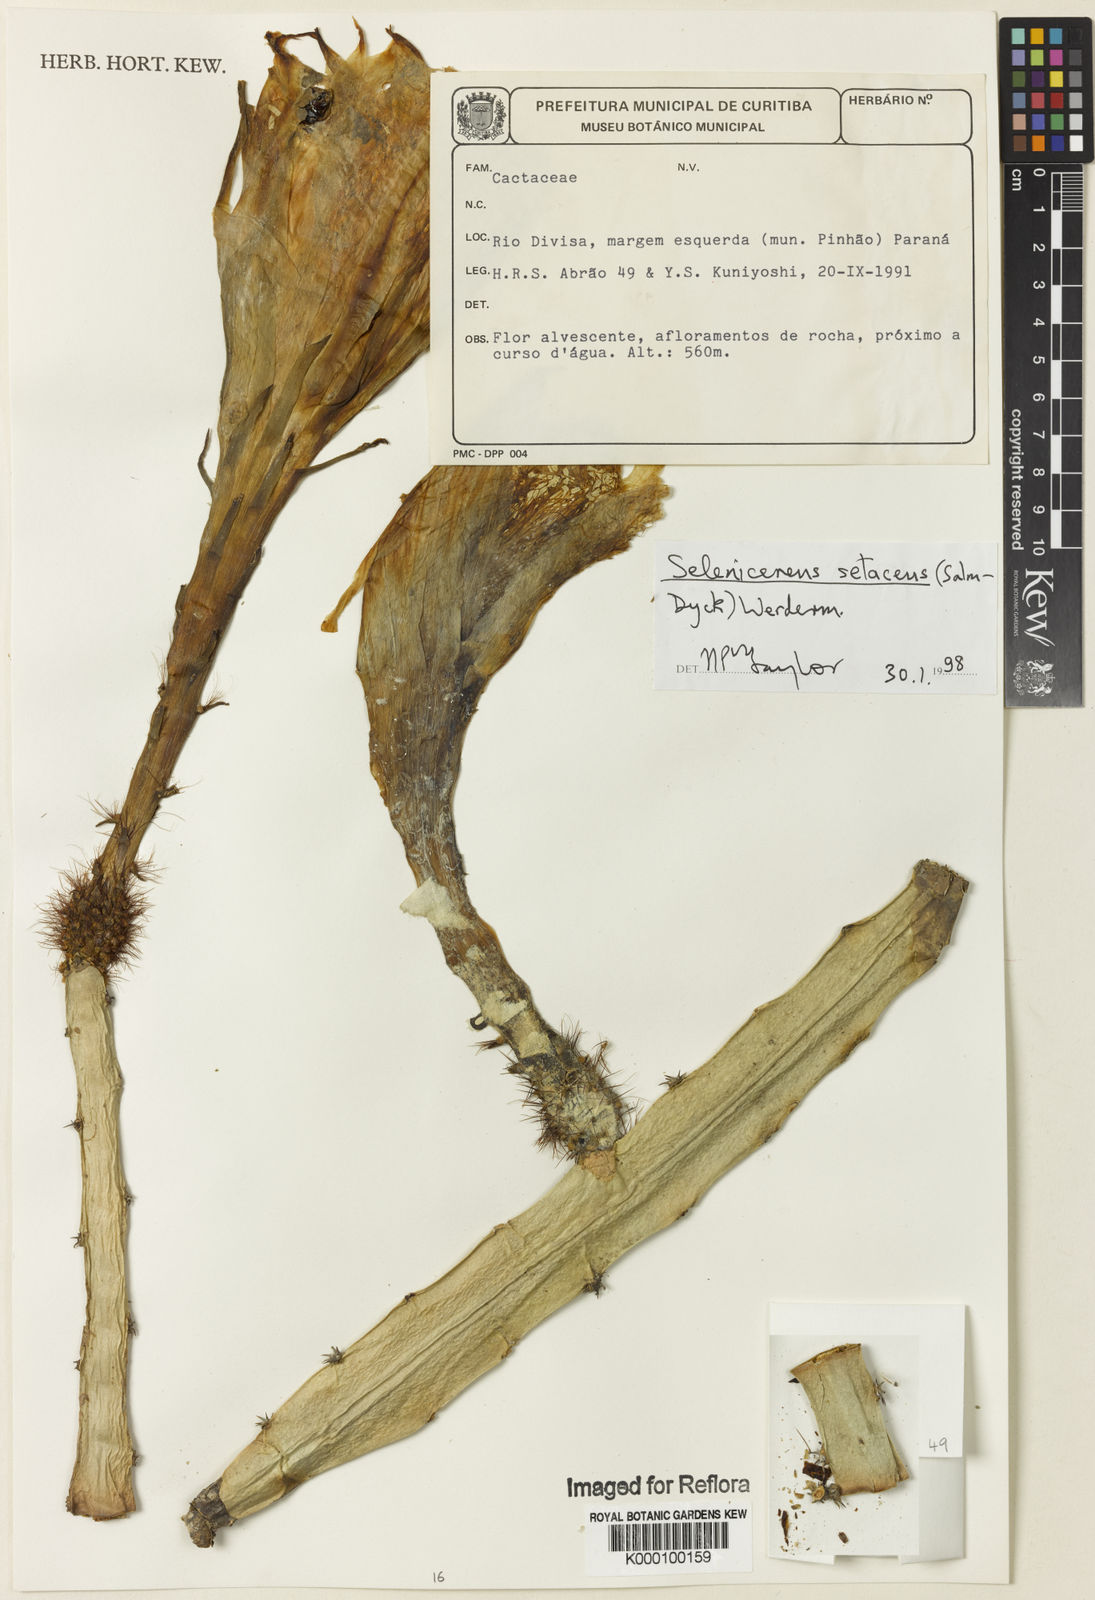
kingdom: Plantae
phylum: Tracheophyta
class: Magnoliopsida
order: Caryophyllales
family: Cactaceae
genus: Selenicereus
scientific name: Selenicereus
